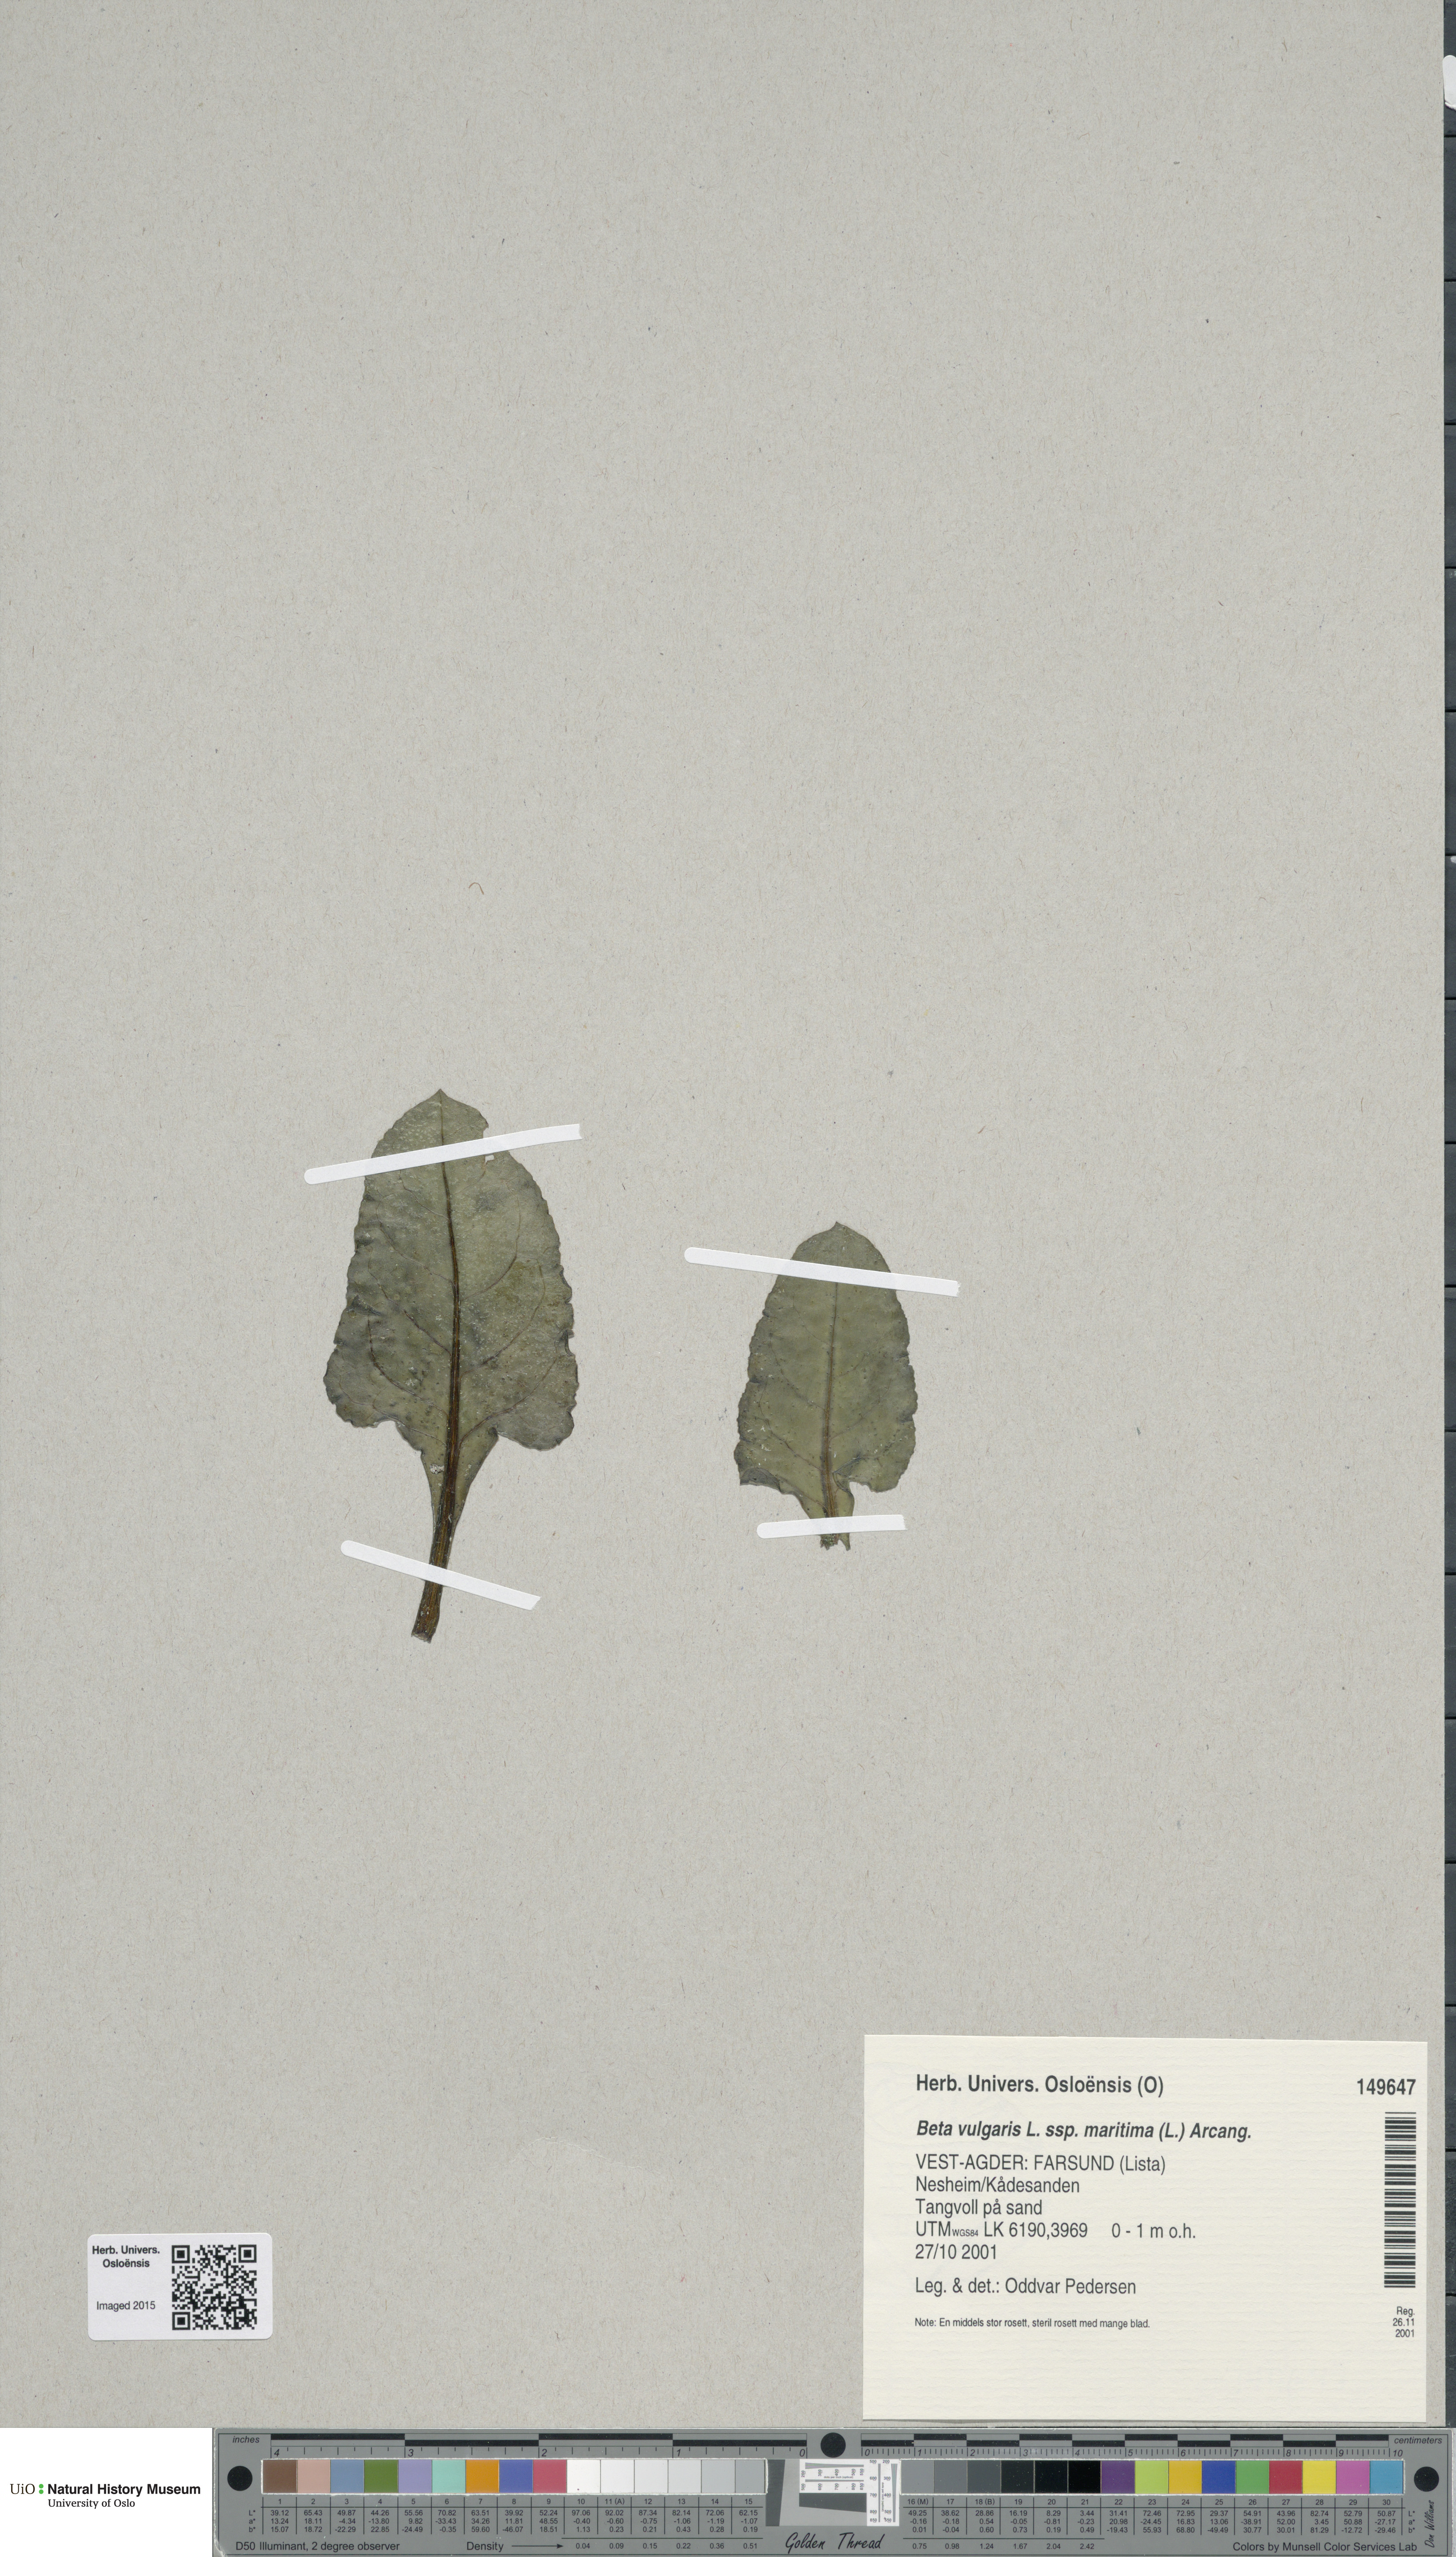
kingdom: Plantae
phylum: Tracheophyta
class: Magnoliopsida
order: Caryophyllales
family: Amaranthaceae
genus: Beta
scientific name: Beta maritima
